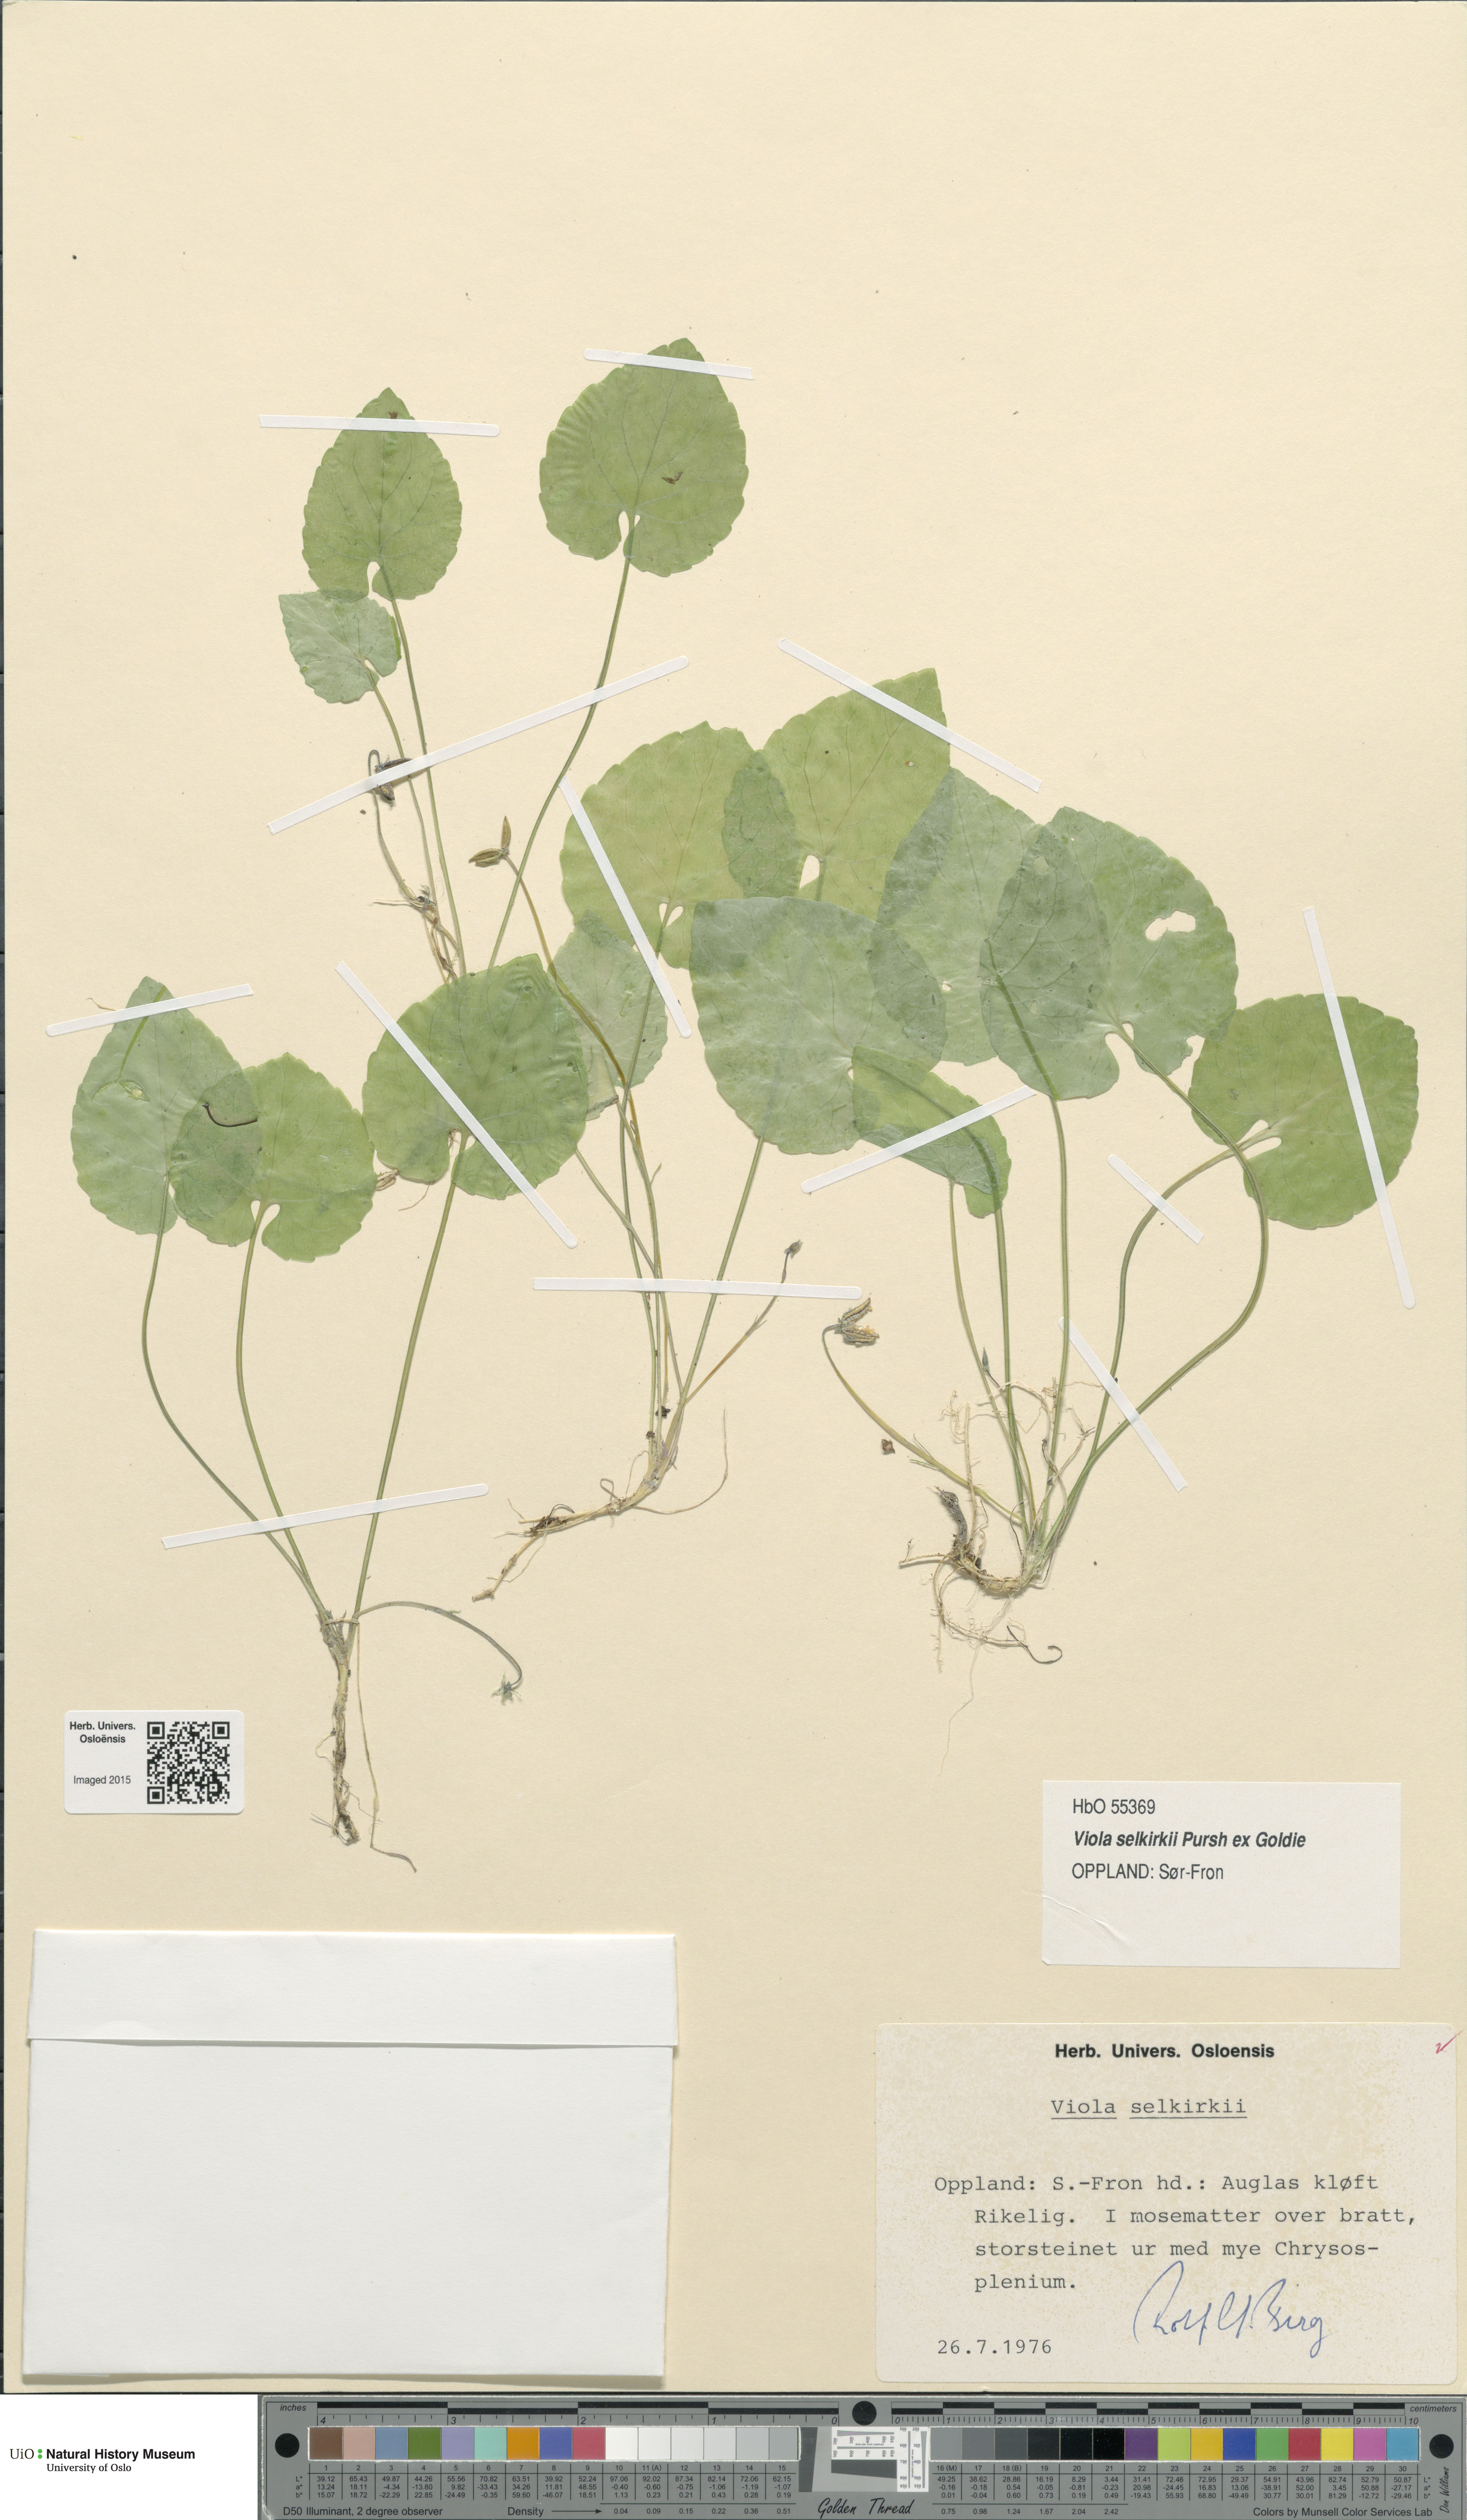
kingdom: Plantae
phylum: Tracheophyta
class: Magnoliopsida
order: Malpighiales
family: Violaceae
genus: Viola
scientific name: Viola selkirkii
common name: Selkirk's violet
